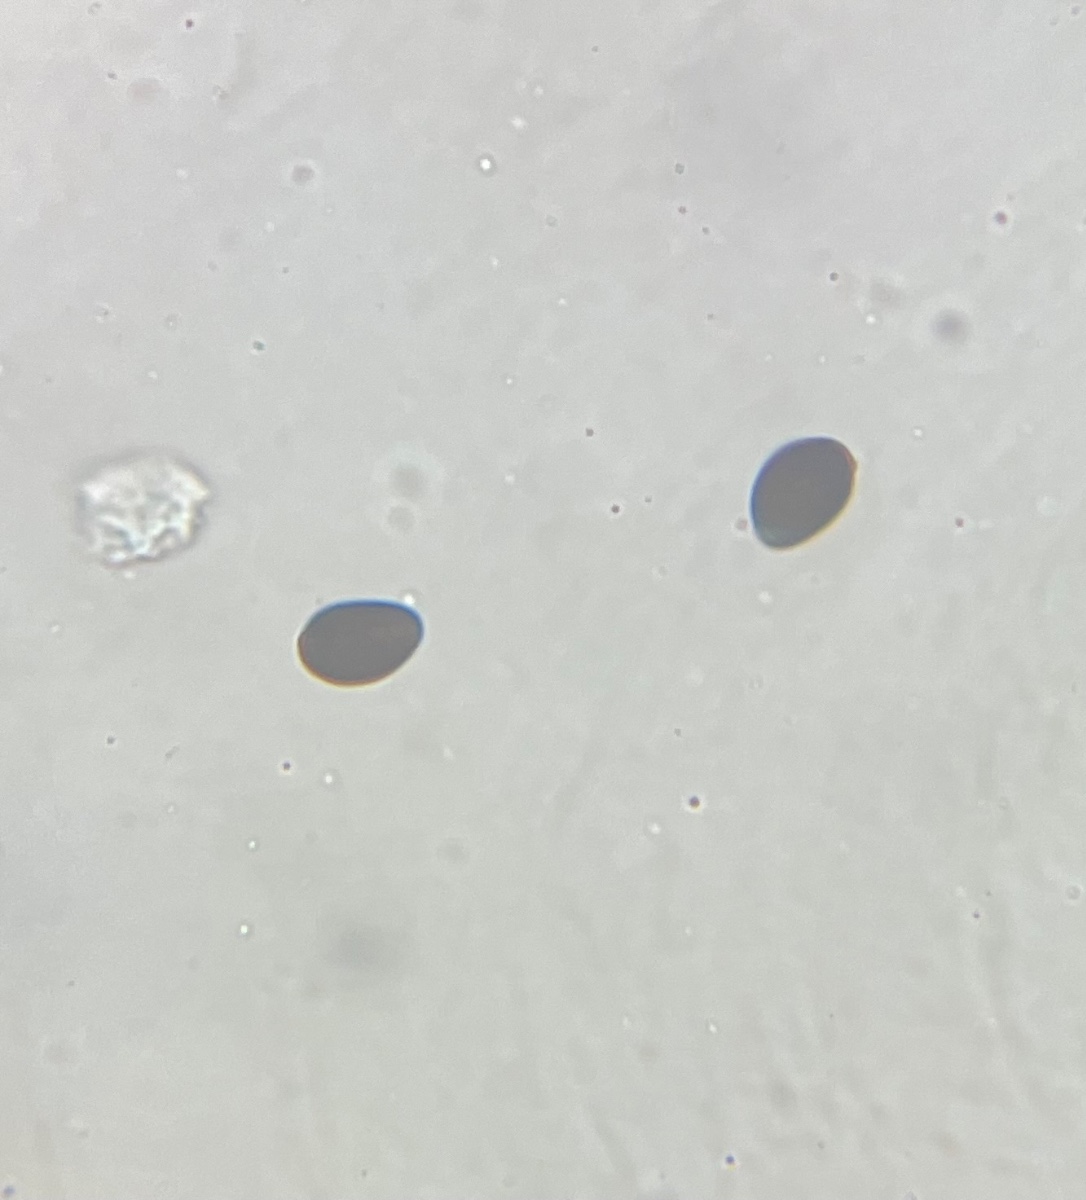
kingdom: Fungi
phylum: Basidiomycota
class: Agaricomycetes
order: Agaricales
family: Psathyrellaceae
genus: Parasola
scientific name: Parasola
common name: hjulhat
